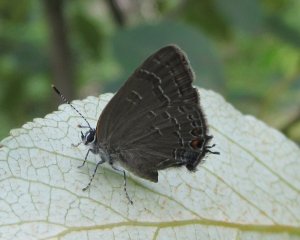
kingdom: Animalia
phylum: Arthropoda
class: Insecta
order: Lepidoptera
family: Lycaenidae
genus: Satyrium
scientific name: Satyrium calanus
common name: Banded Hairstreak
